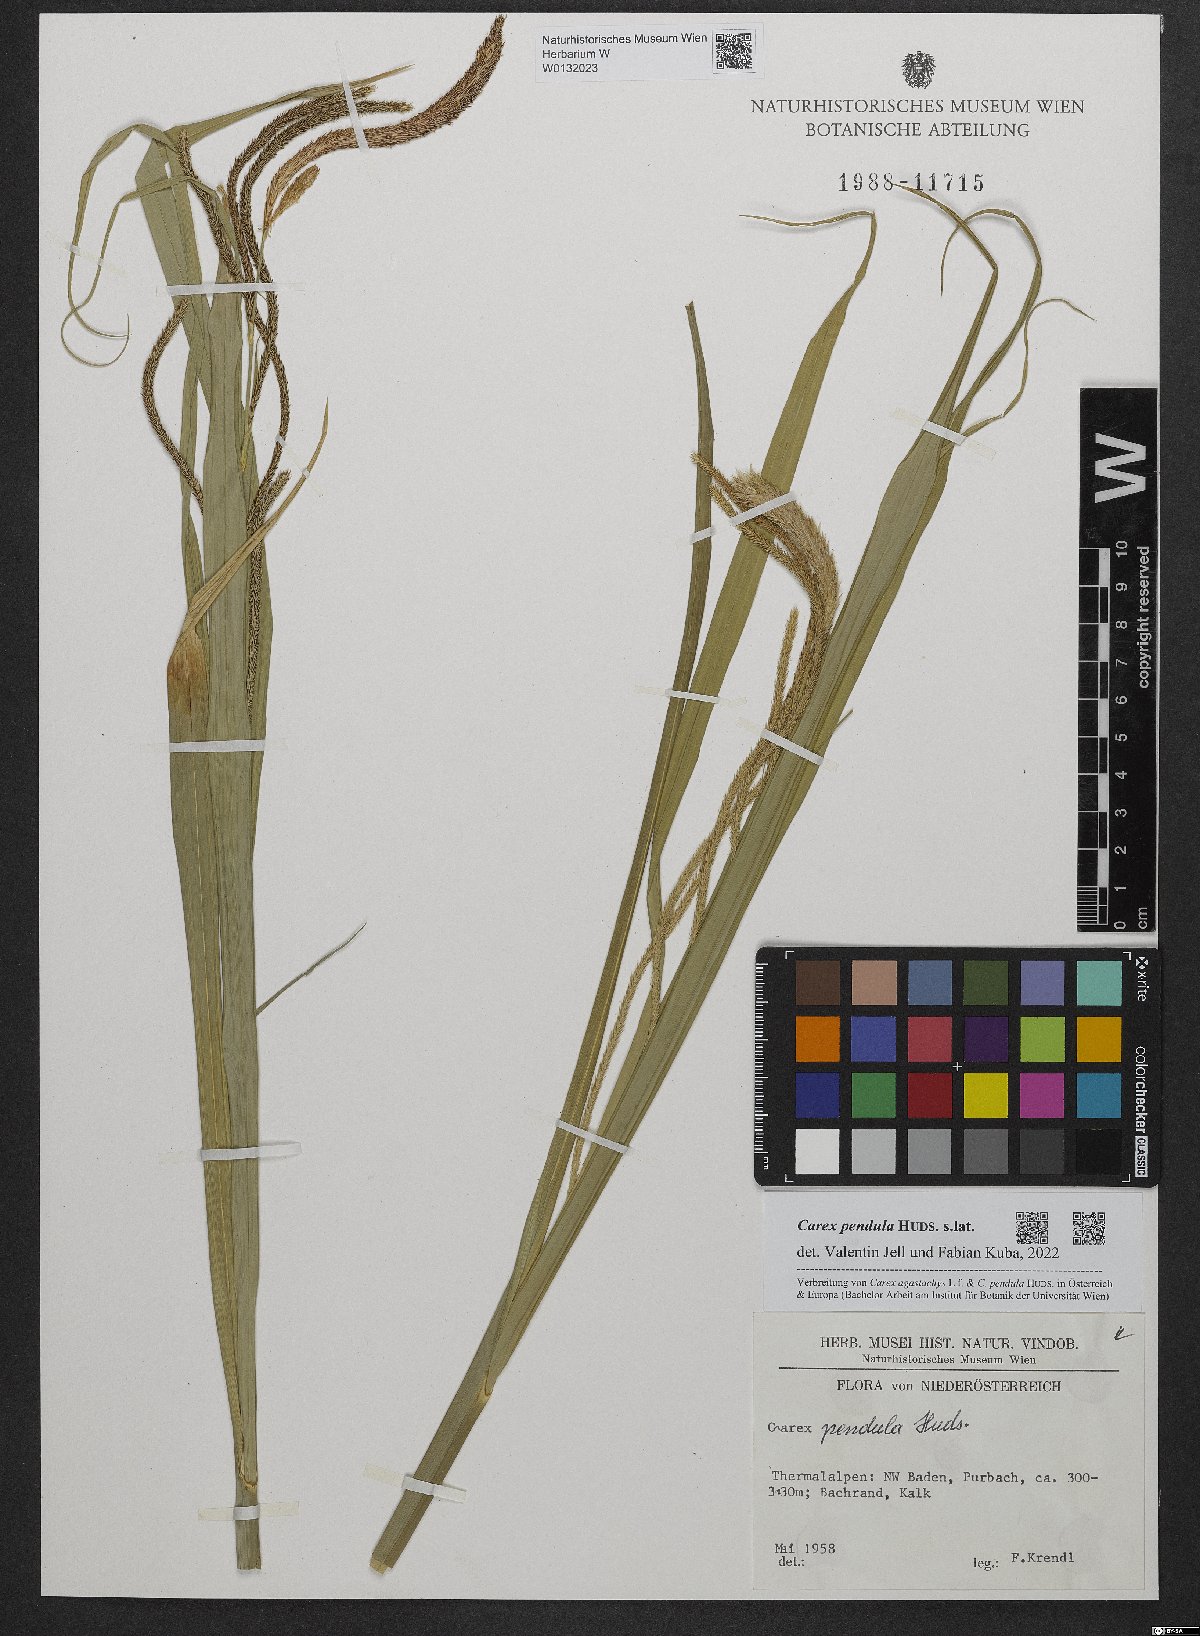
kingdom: Plantae
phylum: Tracheophyta
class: Liliopsida
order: Poales
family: Cyperaceae
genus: Carex
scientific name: Carex pendula
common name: Pendulous sedge
